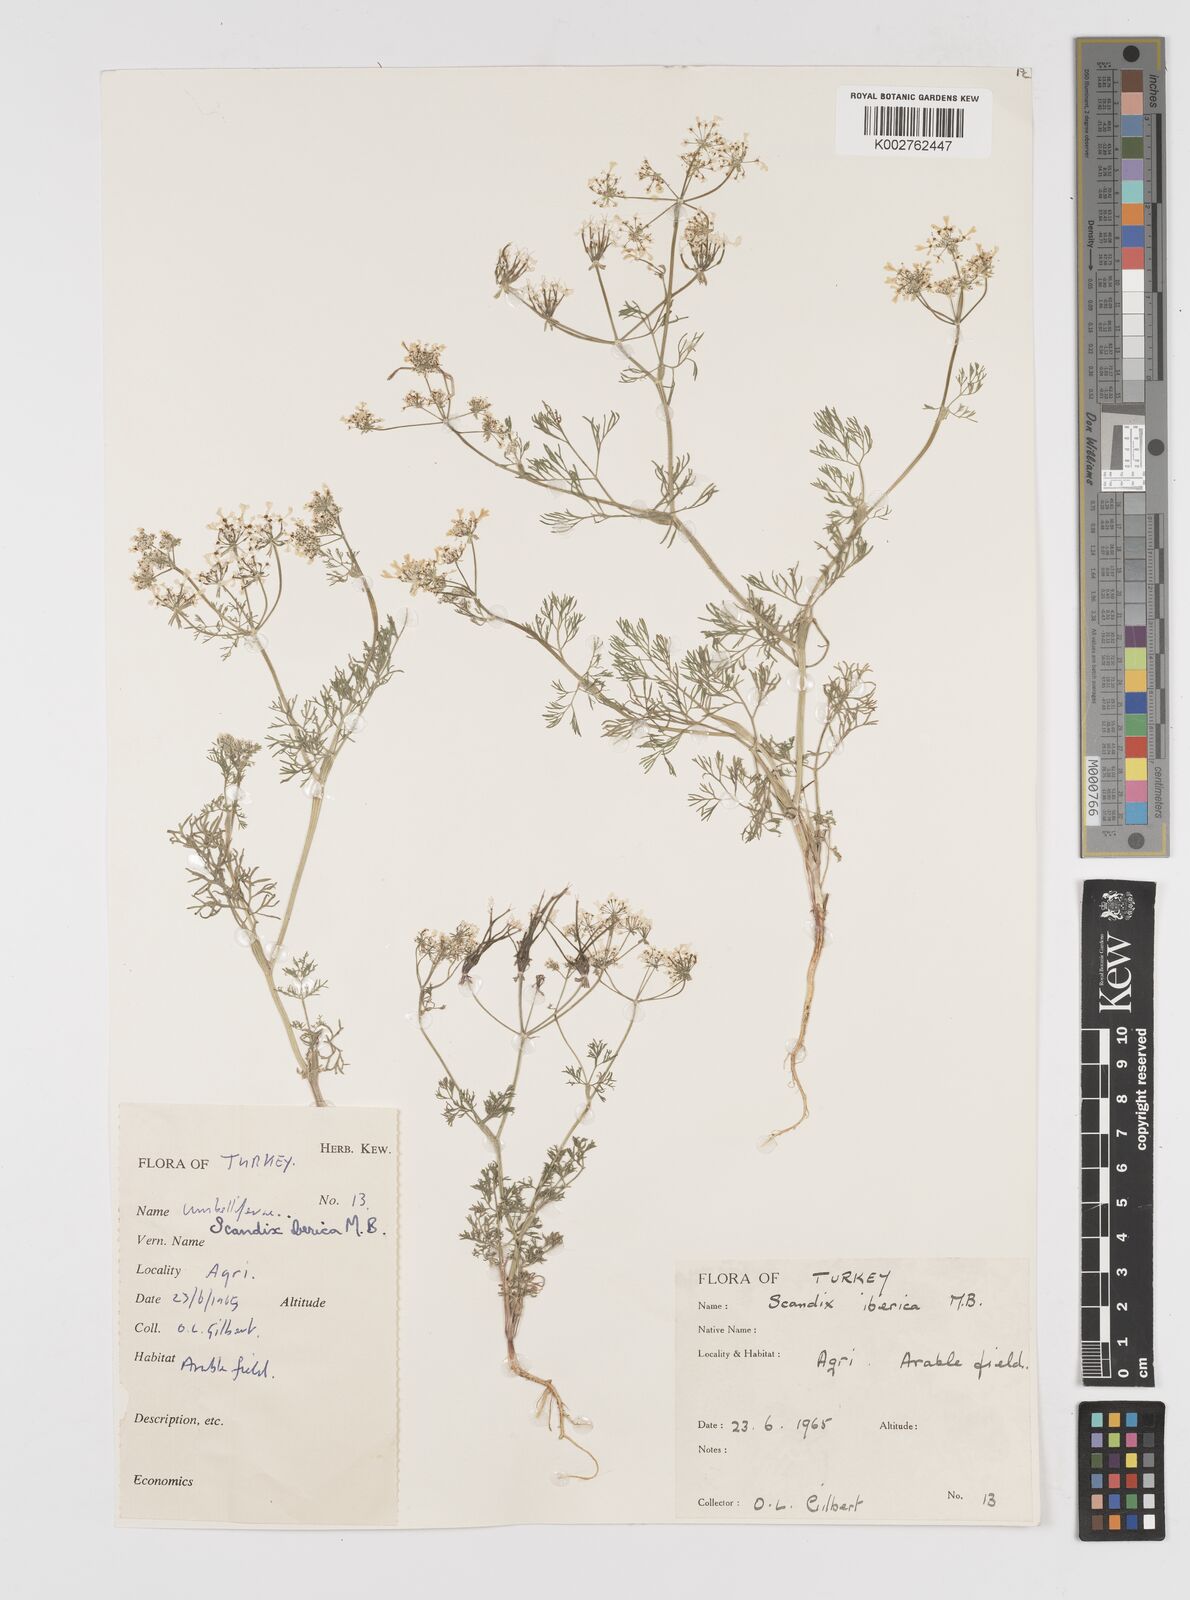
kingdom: Plantae
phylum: Tracheophyta
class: Magnoliopsida
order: Apiales
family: Apiaceae
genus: Scandix
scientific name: Scandix iberica
